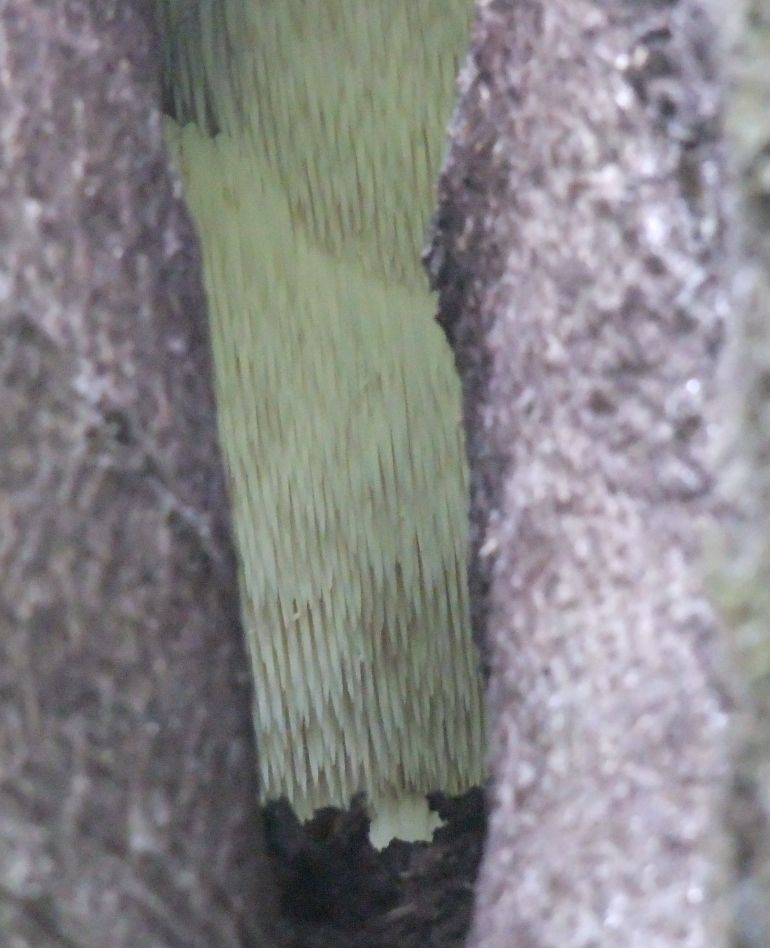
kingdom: Fungi
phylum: Basidiomycota
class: Agaricomycetes
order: Russulales
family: Hericiaceae
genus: Hericium
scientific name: Hericium erinaceus
